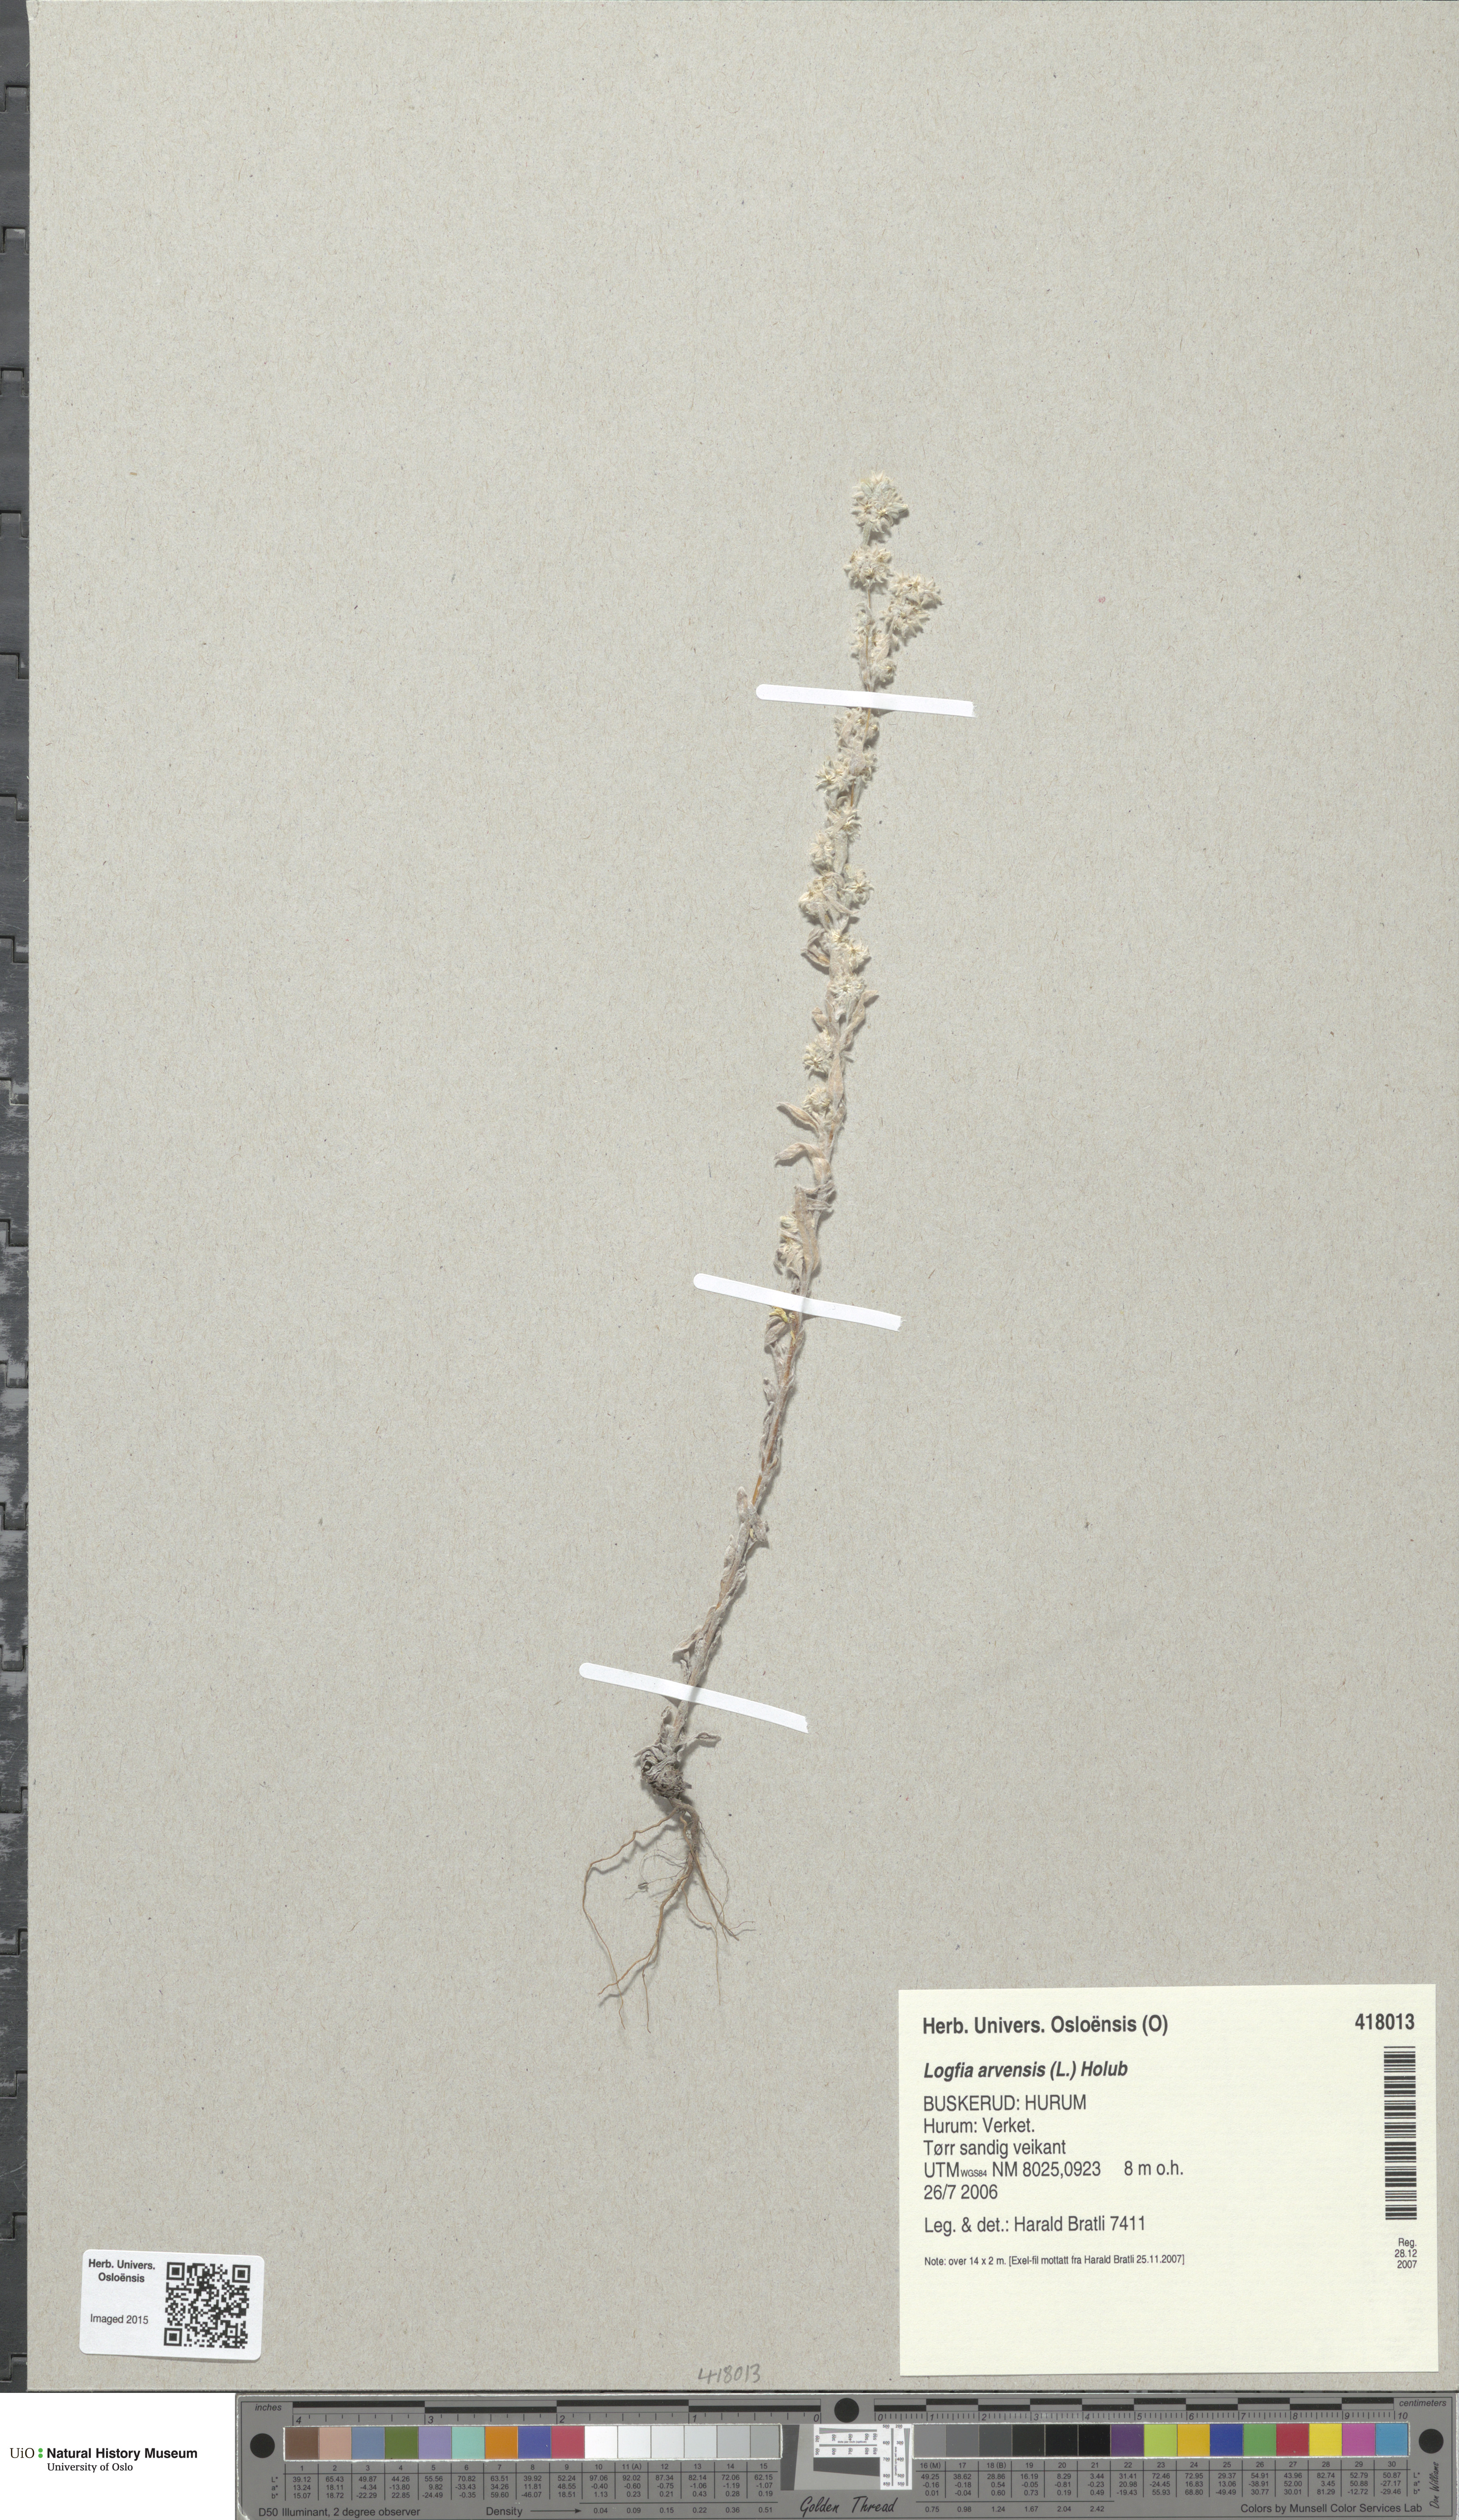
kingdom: Plantae
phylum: Tracheophyta
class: Magnoliopsida
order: Asterales
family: Asteraceae
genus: Filago
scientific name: Filago arvensis
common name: Field cudweed
